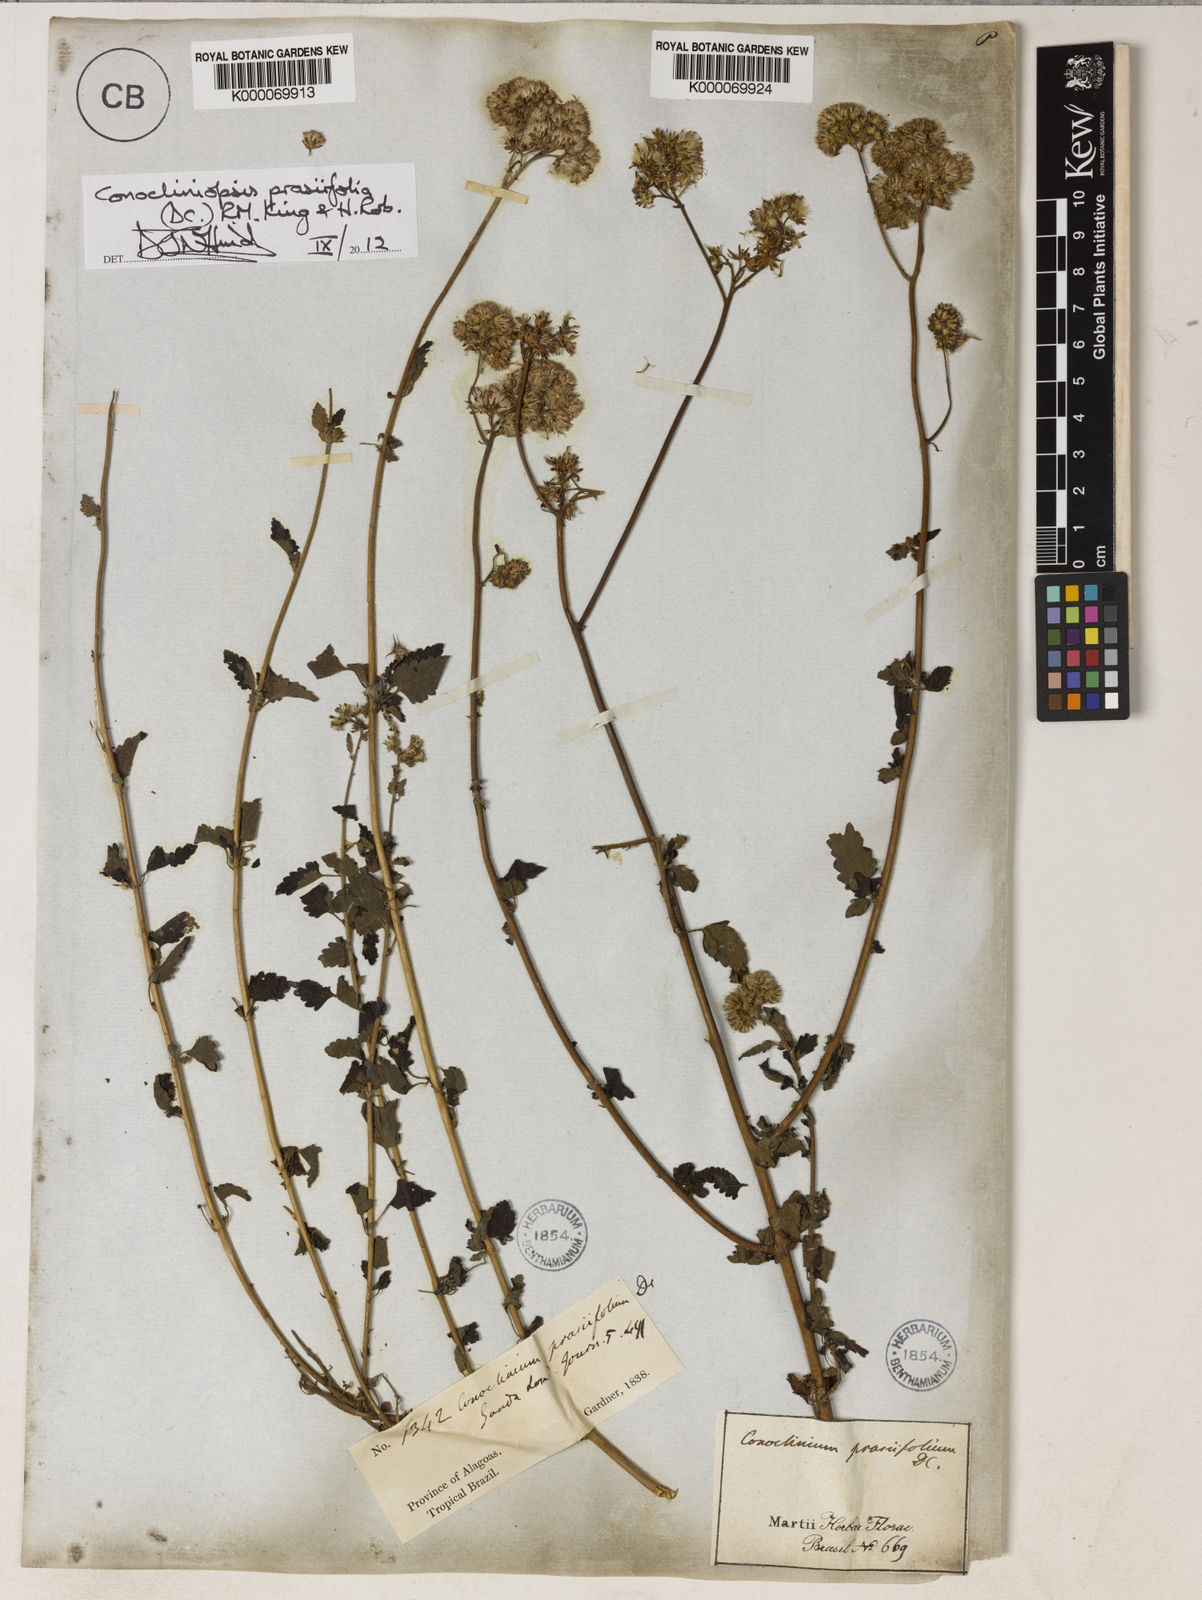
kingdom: Plantae
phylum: Tracheophyta
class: Magnoliopsida
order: Asterales
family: Asteraceae
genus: Conocliniopsis
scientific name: Conocliniopsis grossedentata
